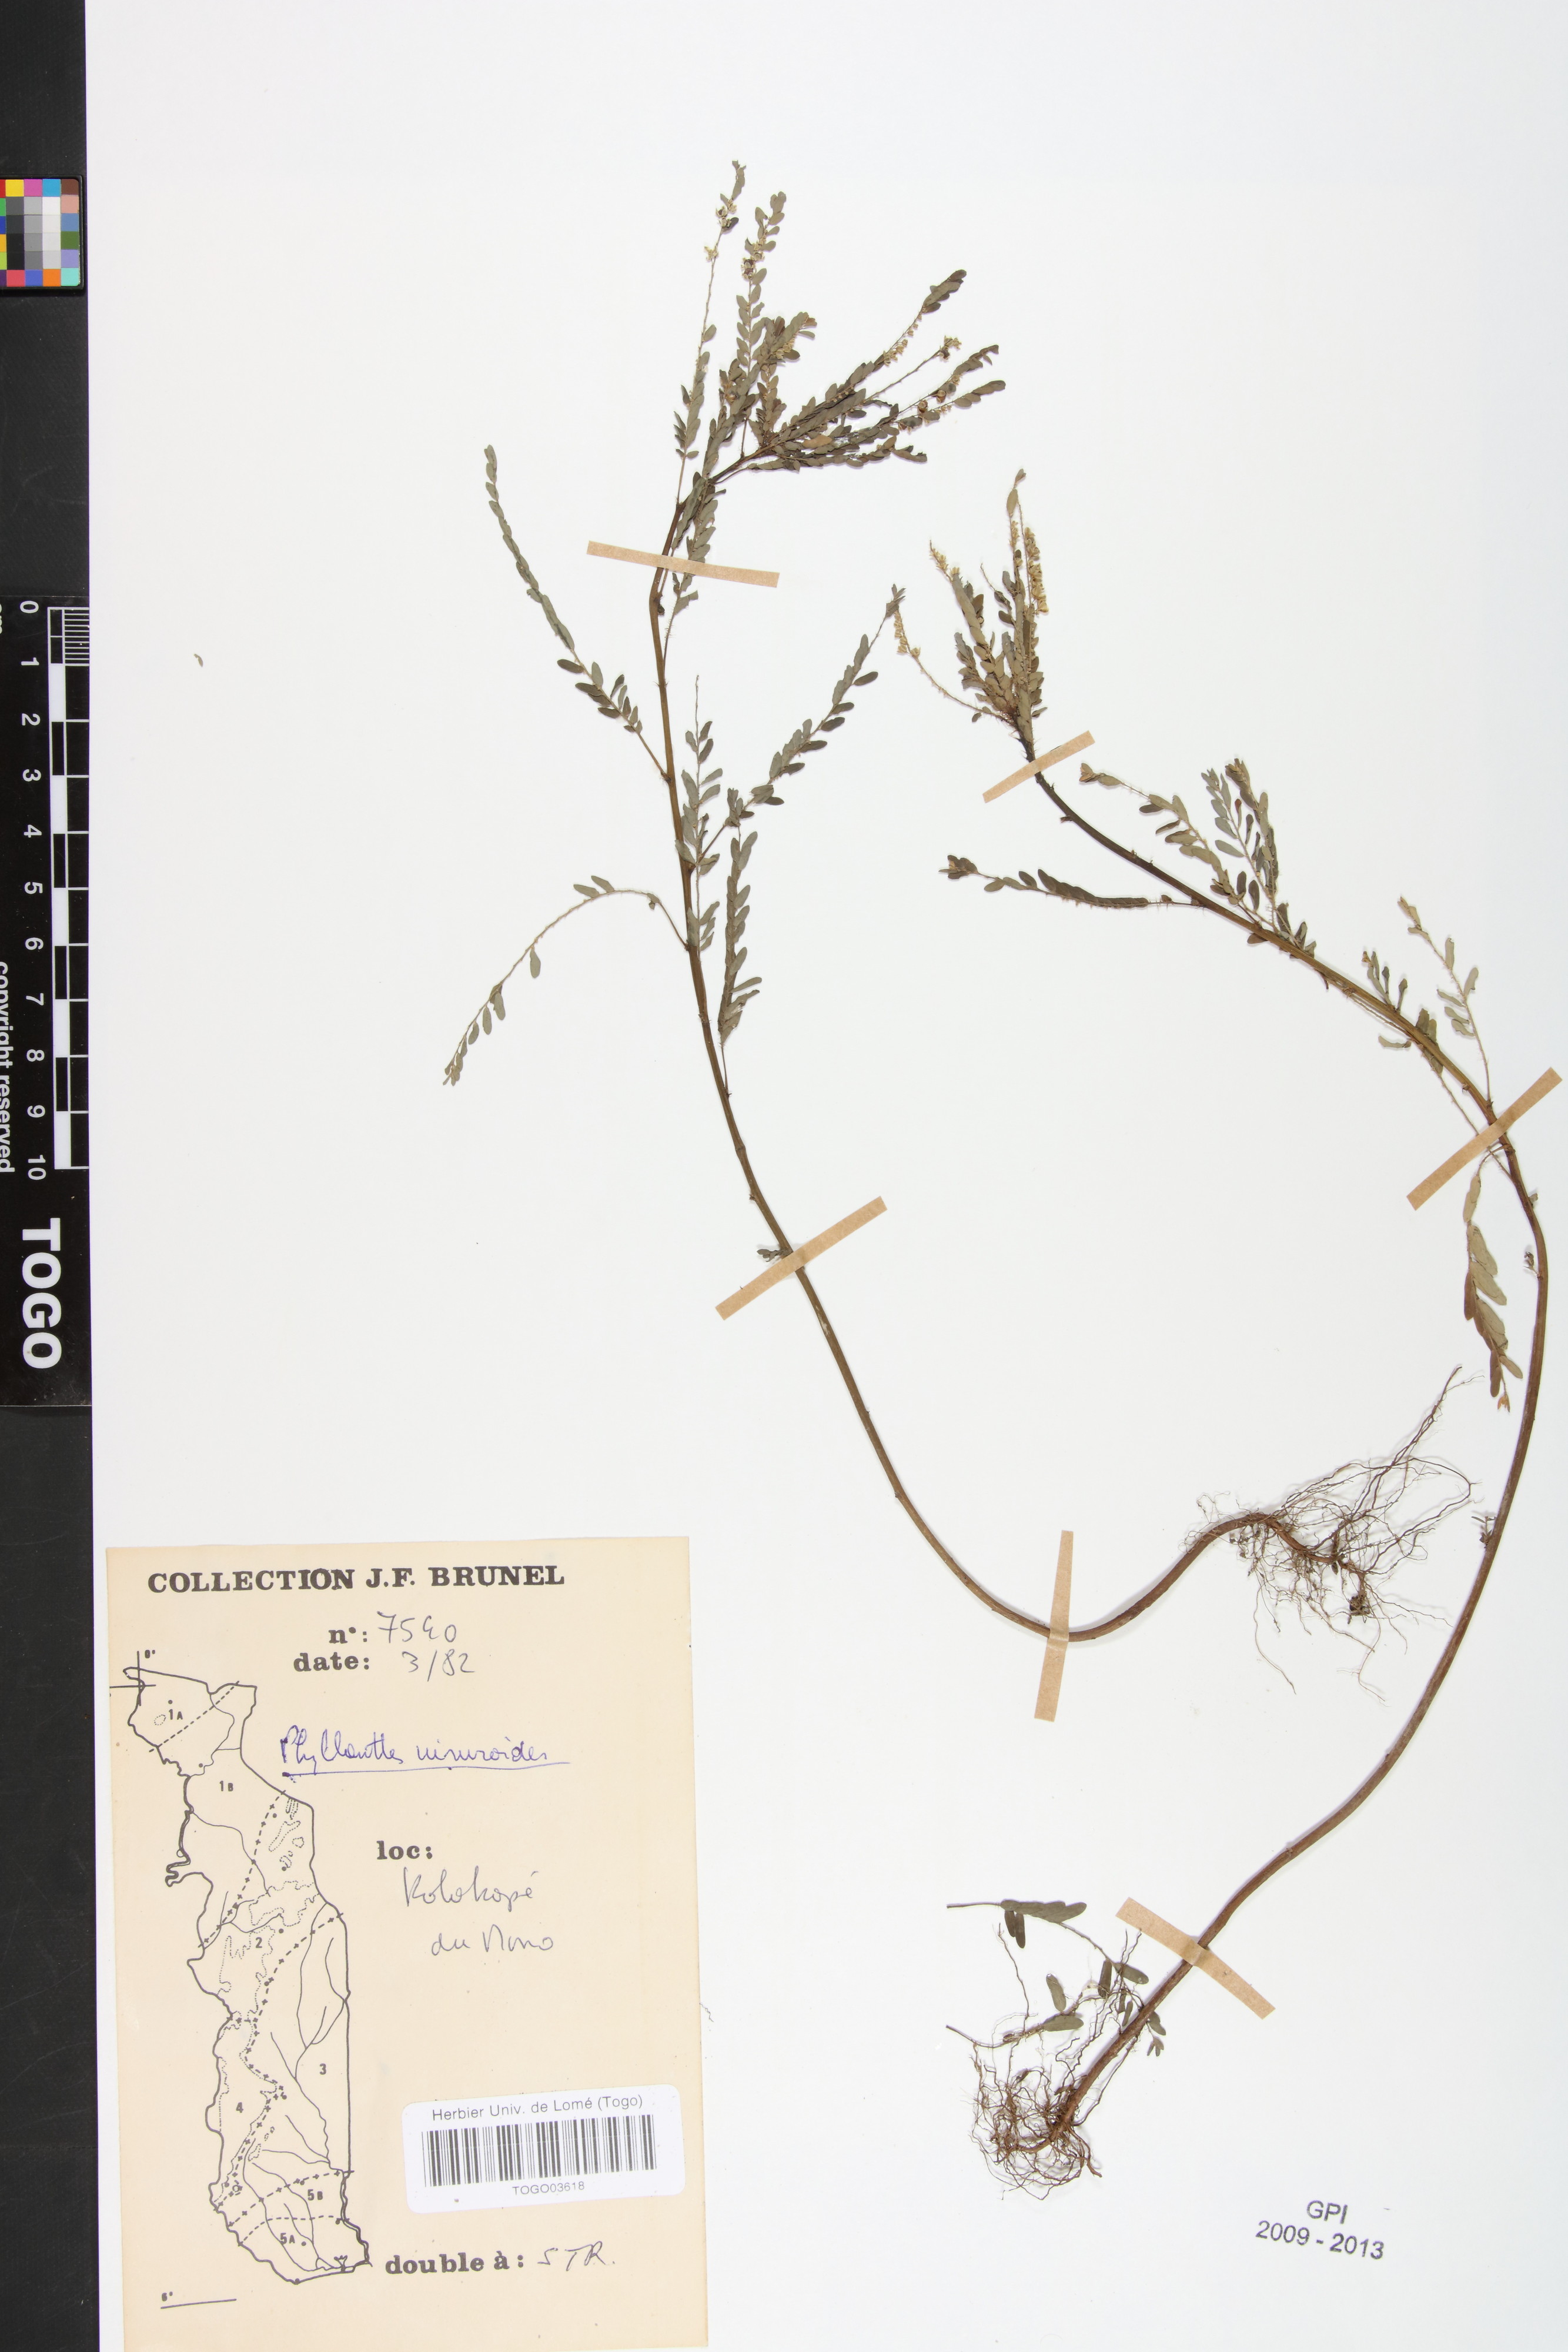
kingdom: Plantae
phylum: Tracheophyta
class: Magnoliopsida
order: Malpighiales
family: Phyllanthaceae
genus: Phyllanthus
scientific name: Phyllanthus niruroides
